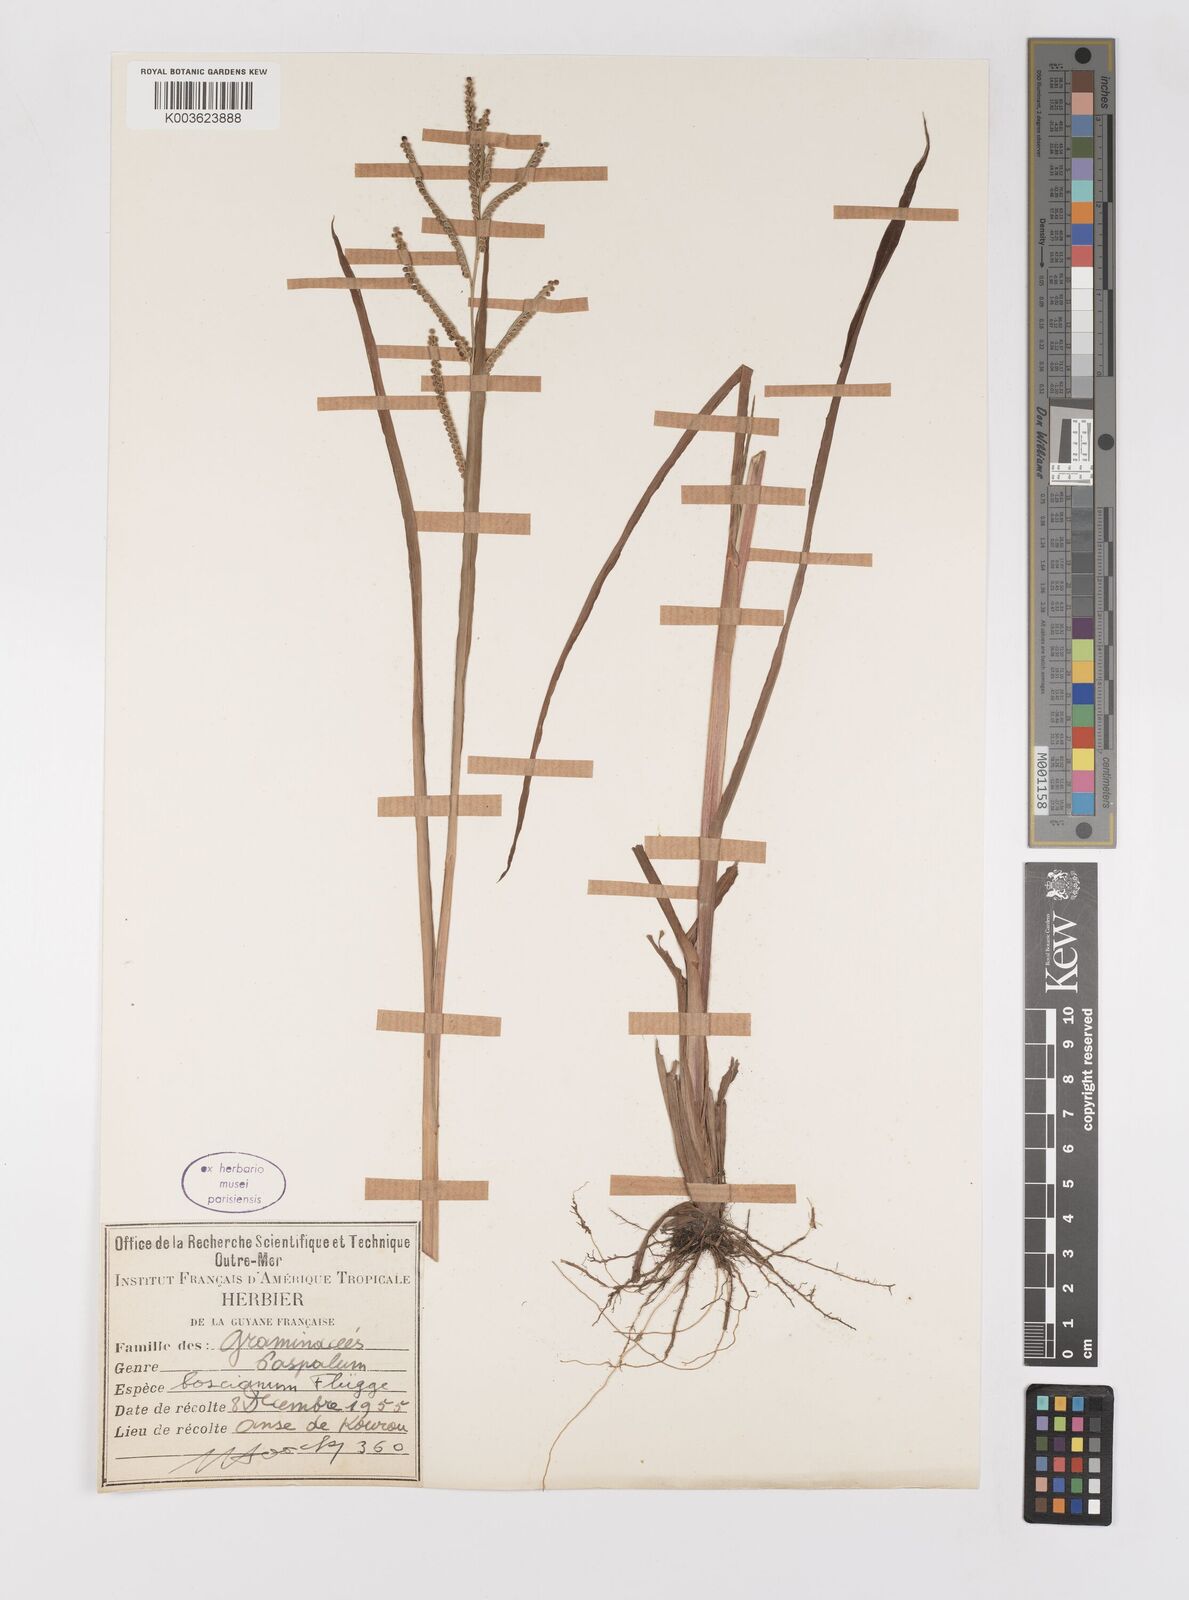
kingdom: Plantae
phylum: Tracheophyta
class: Liliopsida
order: Poales
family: Poaceae
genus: Paspalum
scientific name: Paspalum scrobiculatum
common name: Kodo millet
